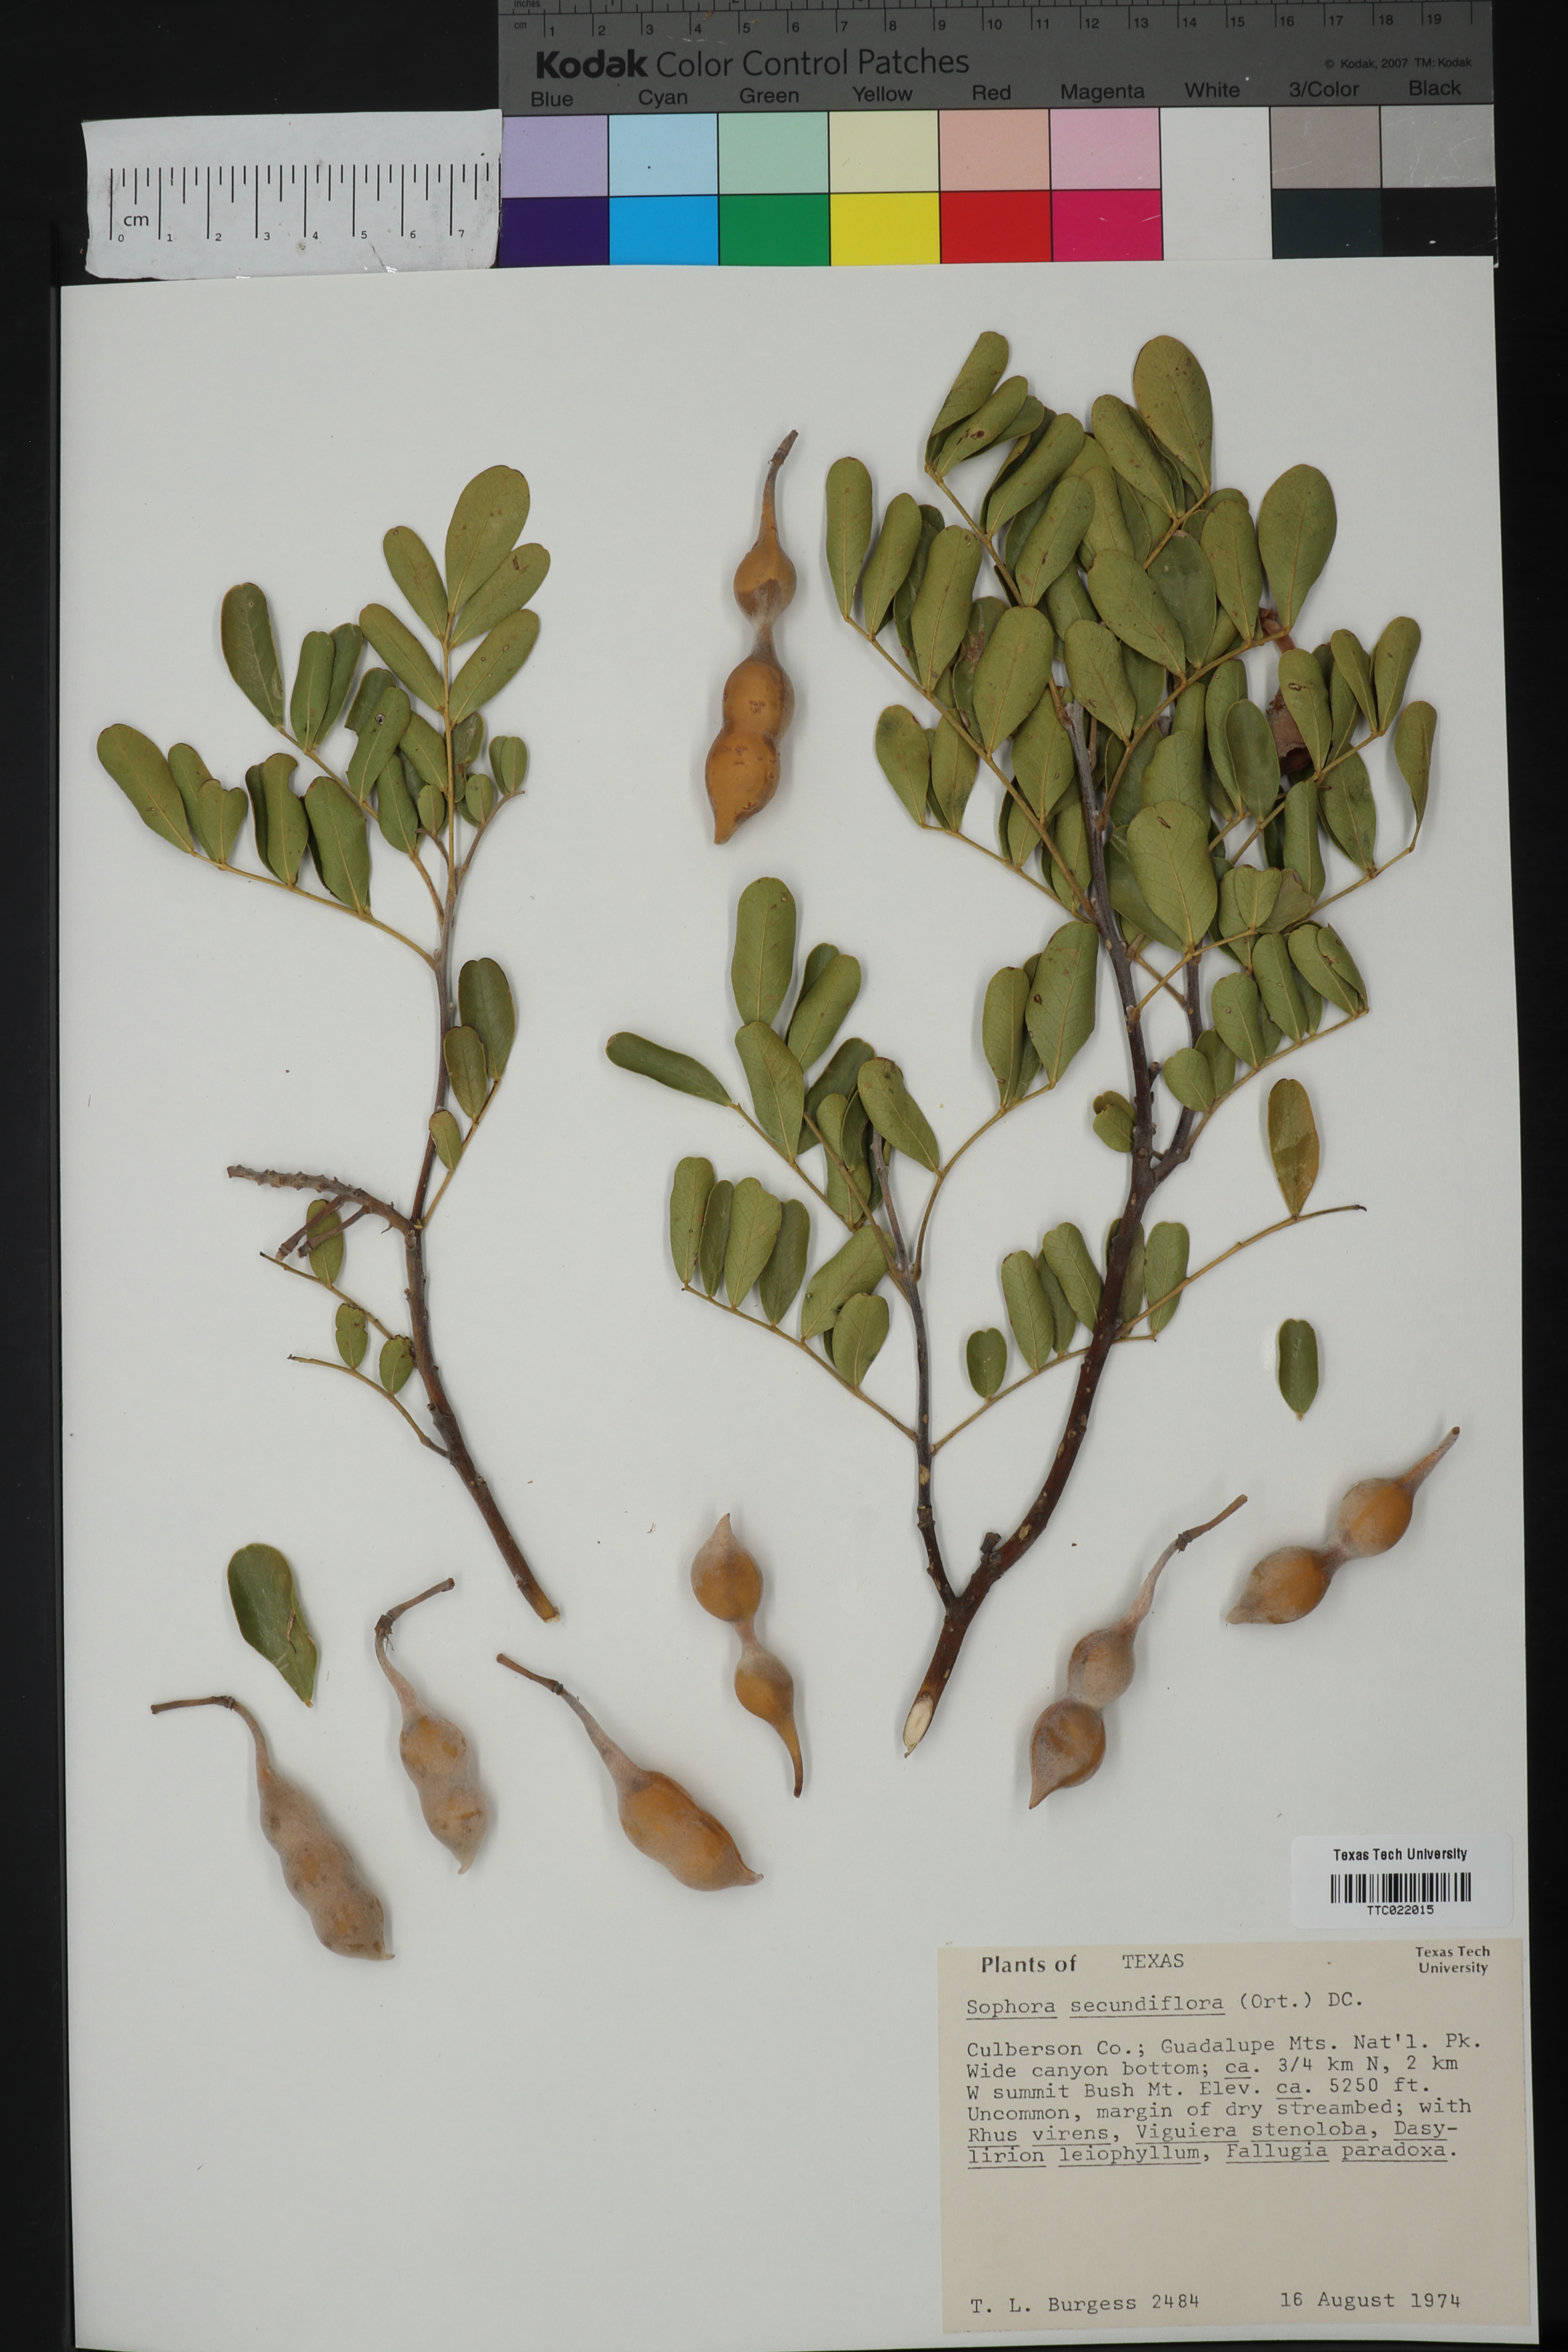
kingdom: Plantae
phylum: Tracheophyta
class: Magnoliopsida
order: Fabales
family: Fabaceae
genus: Dermatophyllum
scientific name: Dermatophyllum secundiflorum
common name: Texas-mountain-laurel
